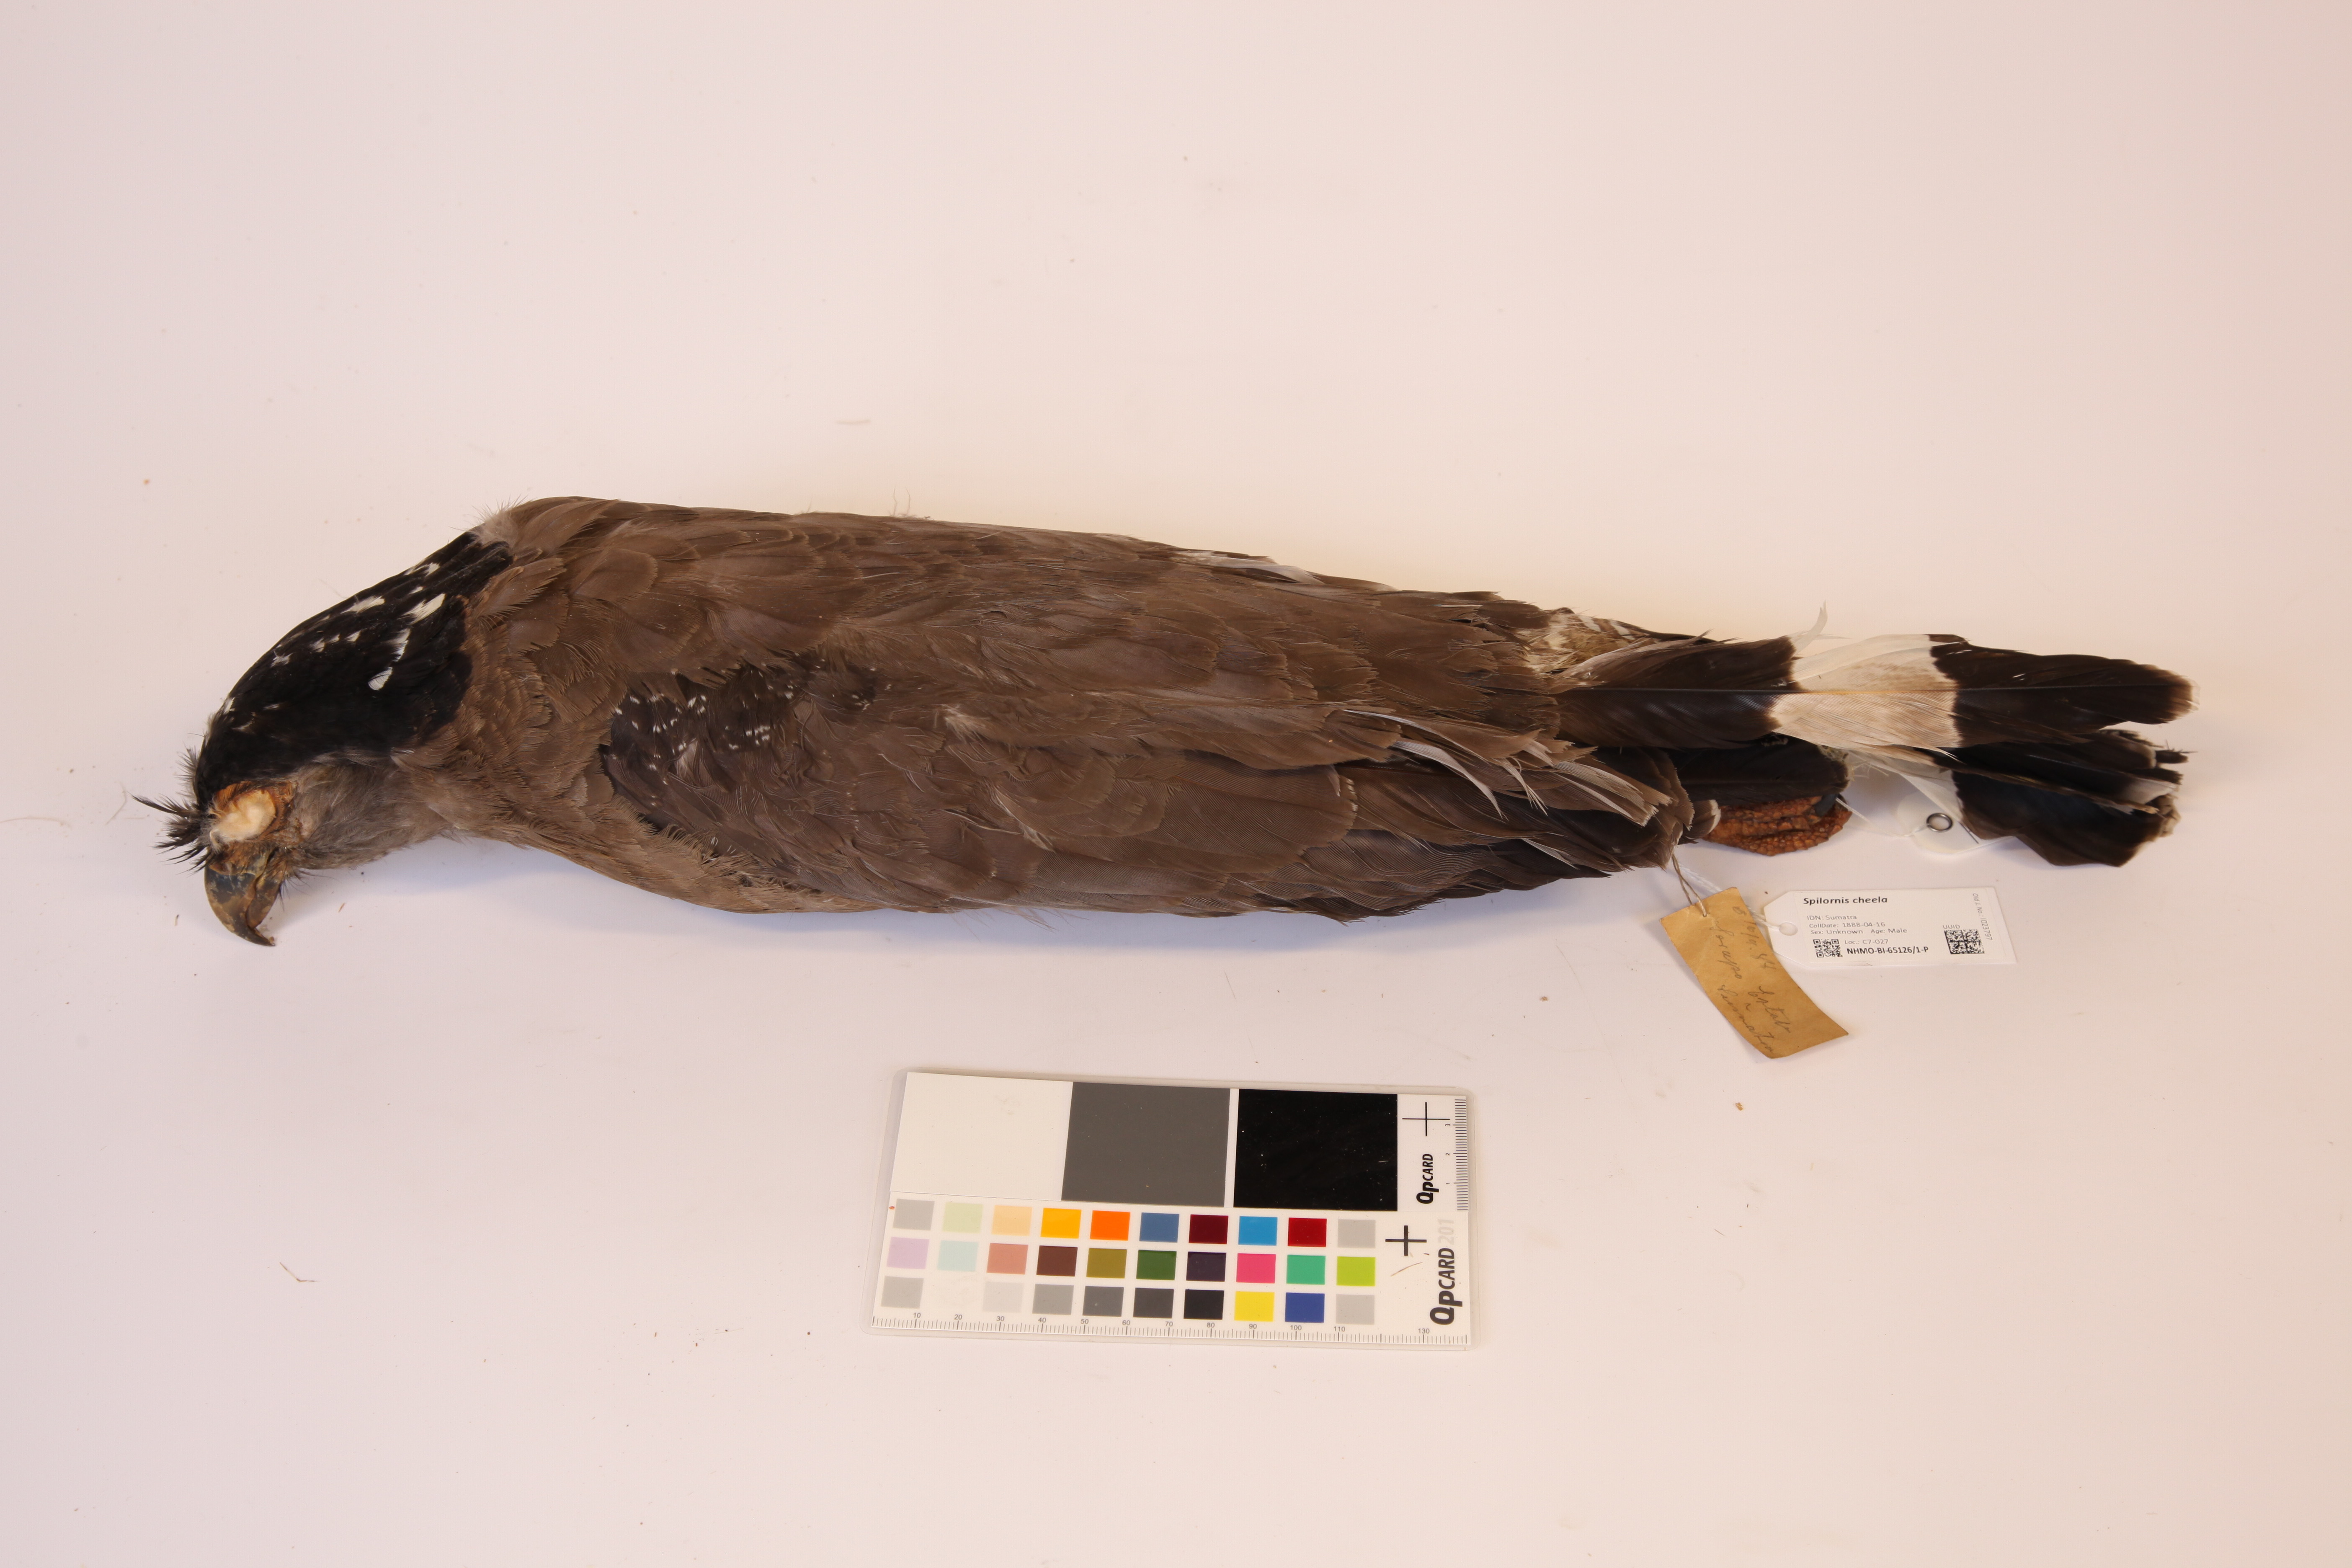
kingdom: Animalia
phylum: Chordata
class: Aves
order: Accipitriformes
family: Accipitridae
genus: Spilornis
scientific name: Spilornis cheela
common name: Crested serpent eagle
